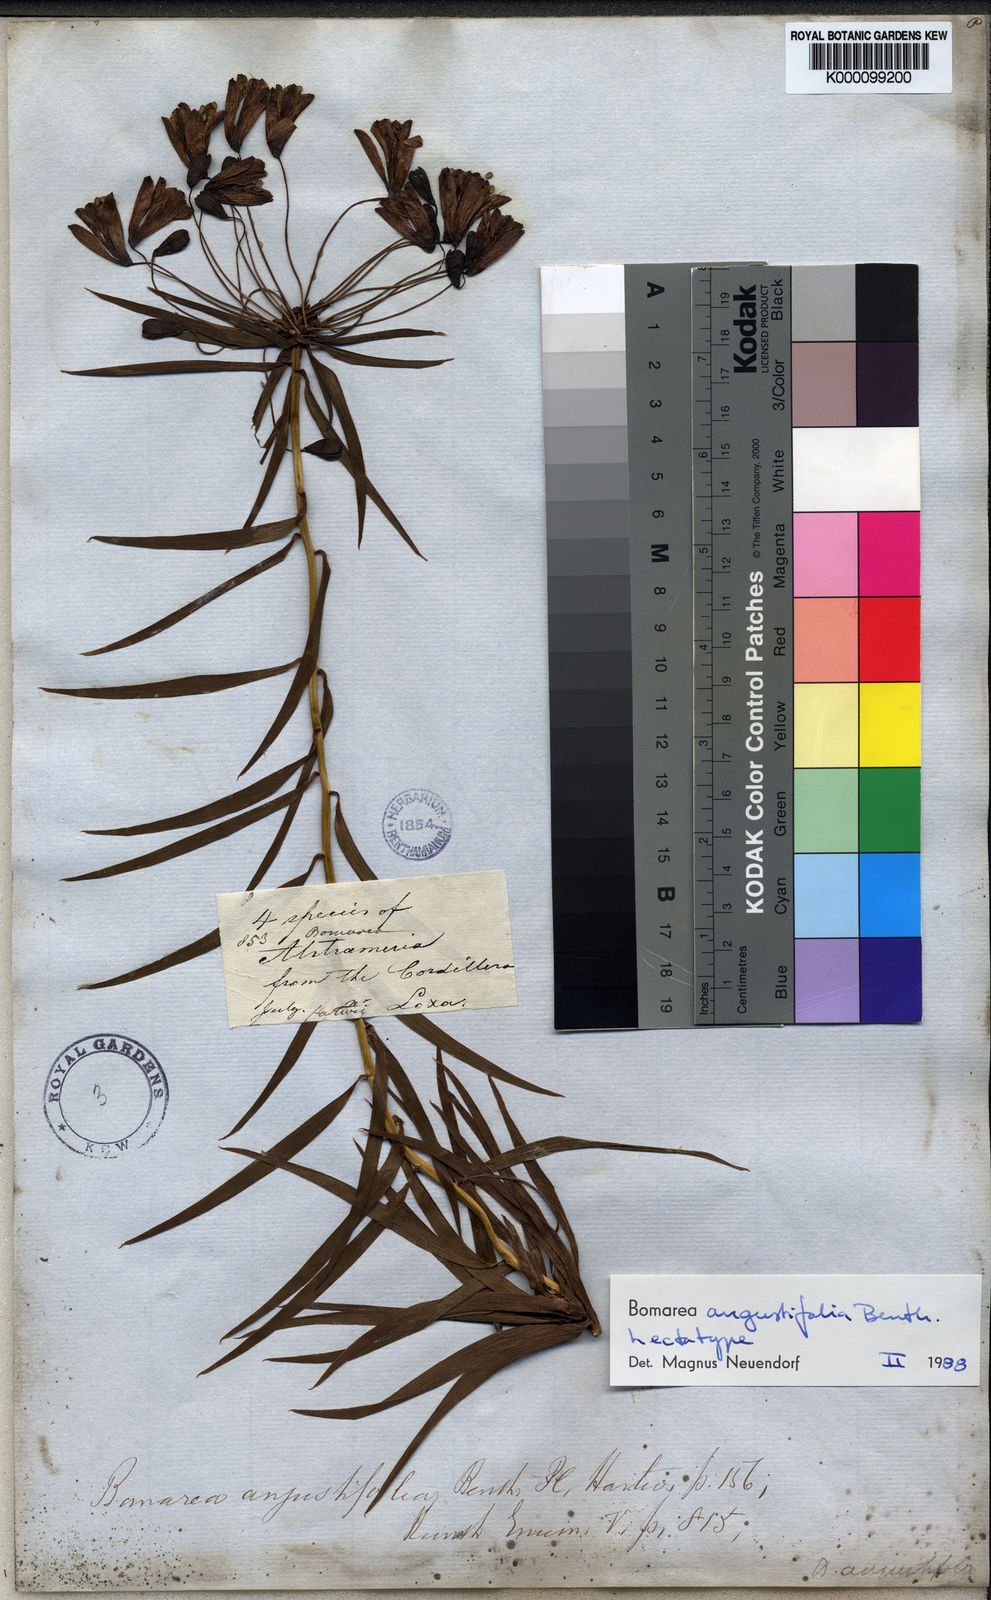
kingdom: Plantae
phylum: Tracheophyta
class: Liliopsida
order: Liliales
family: Alstroemeriaceae
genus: Bomarea
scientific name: Bomarea angulata
